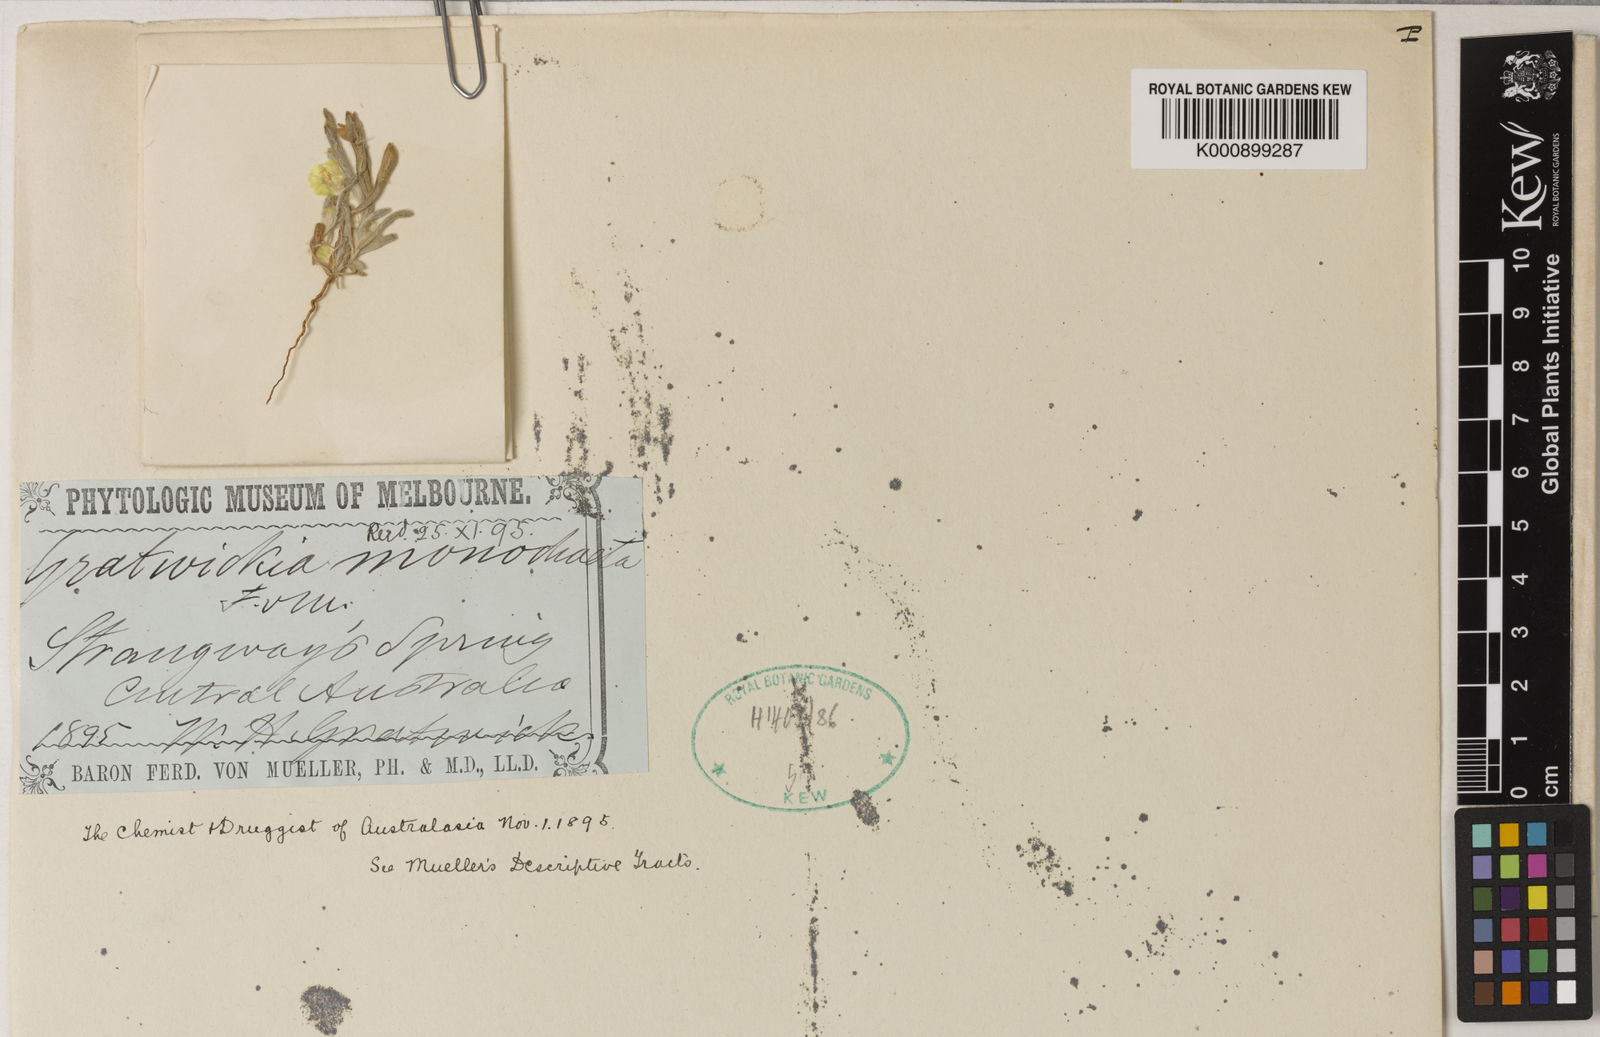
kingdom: Plantae
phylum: Tracheophyta
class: Magnoliopsida
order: Asterales
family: Asteraceae
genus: Gratwickia
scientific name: Gratwickia monochaeta
